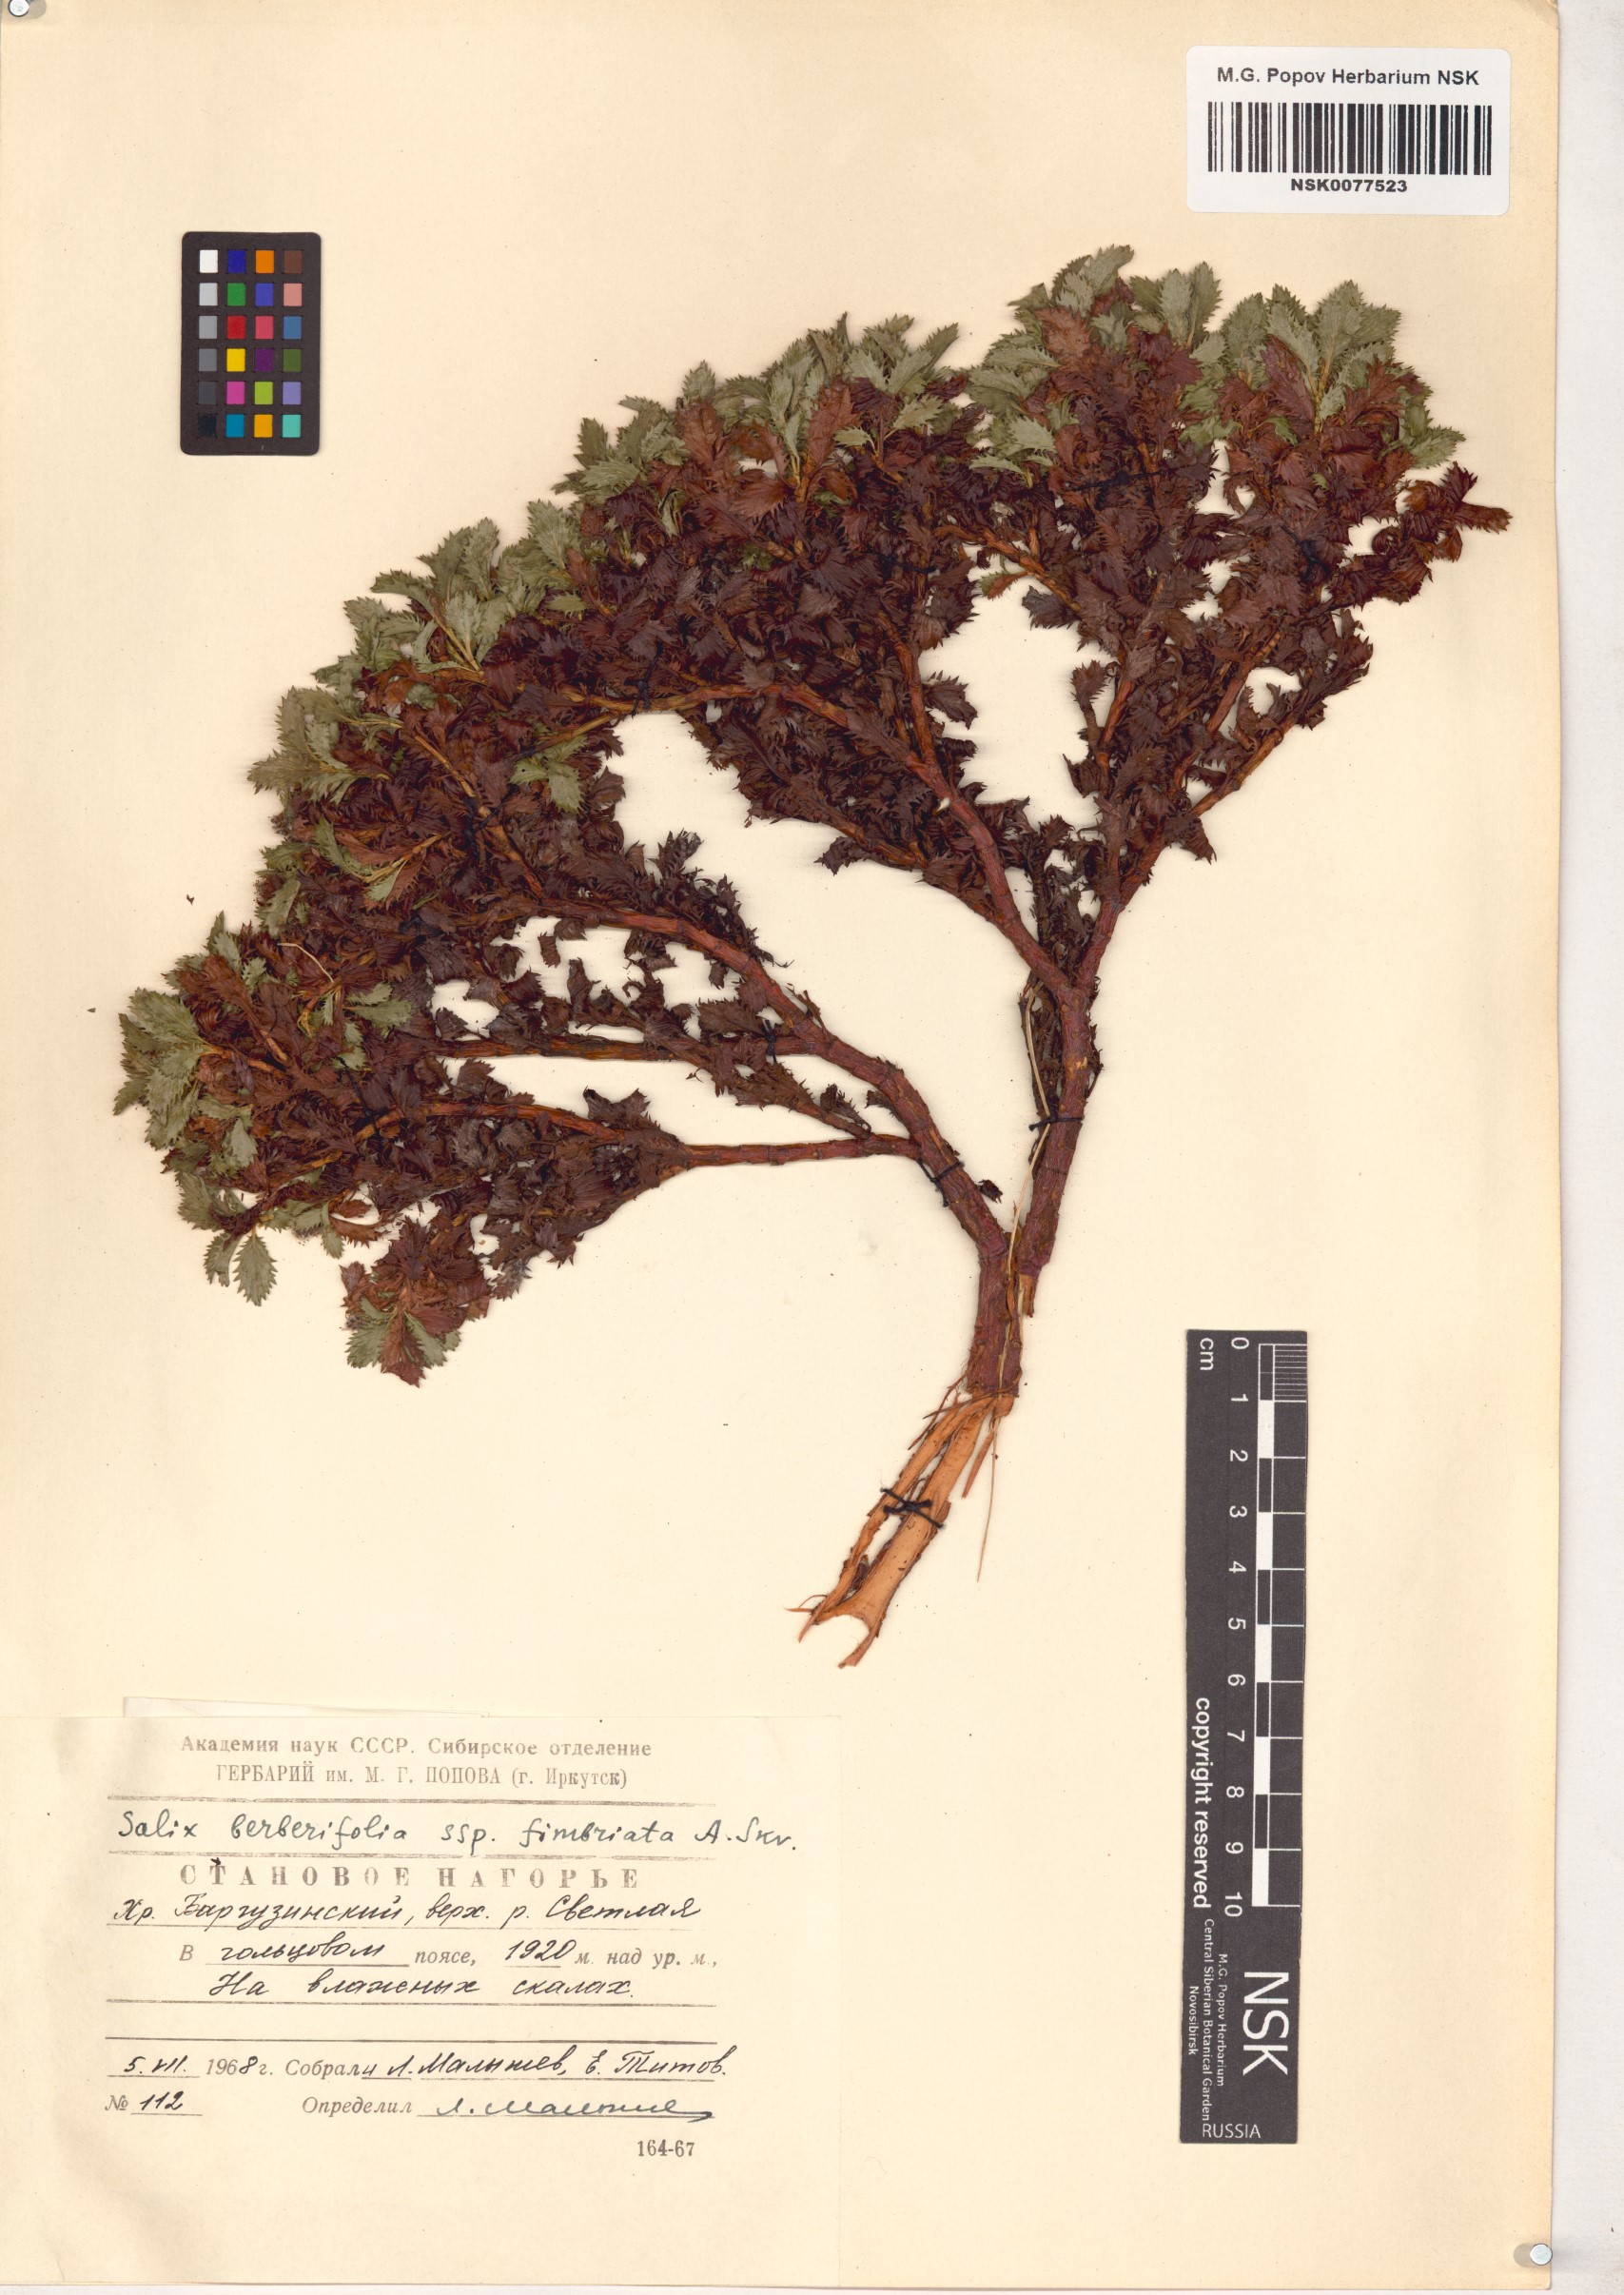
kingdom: Plantae
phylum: Tracheophyta
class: Magnoliopsida
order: Malpighiales
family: Salicaceae
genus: Salix
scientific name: Salix berberifolia
